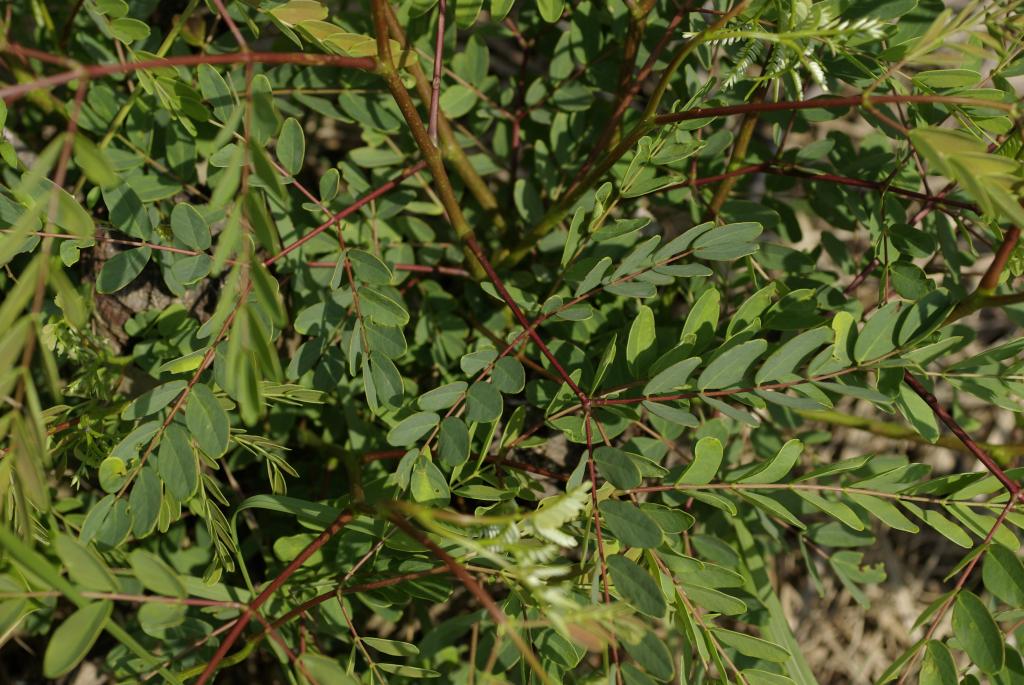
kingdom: Plantae
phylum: Tracheophyta
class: Magnoliopsida
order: Fabales
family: Fabaceae
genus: Albizia
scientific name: Albizia procera
